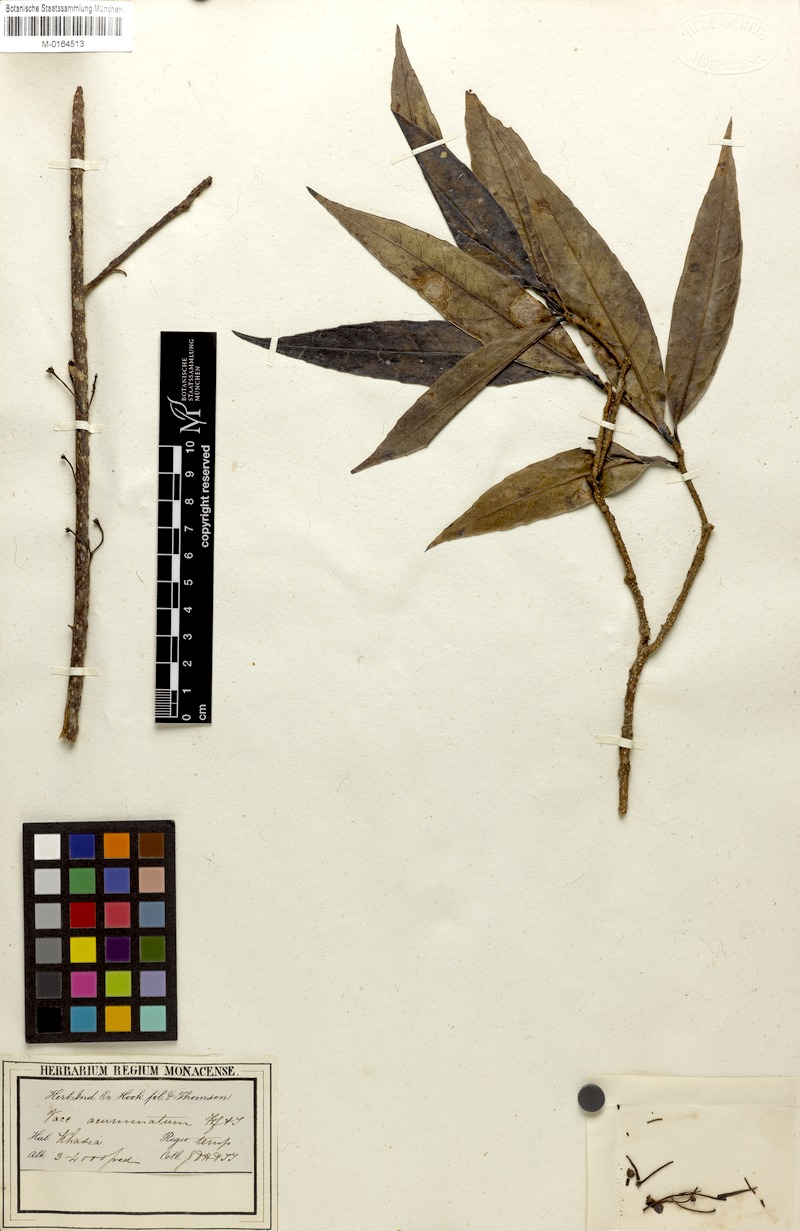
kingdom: Plantae
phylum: Tracheophyta
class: Magnoliopsida
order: Ericales
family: Ericaceae
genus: Disterigma
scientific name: Disterigma acuminatum
